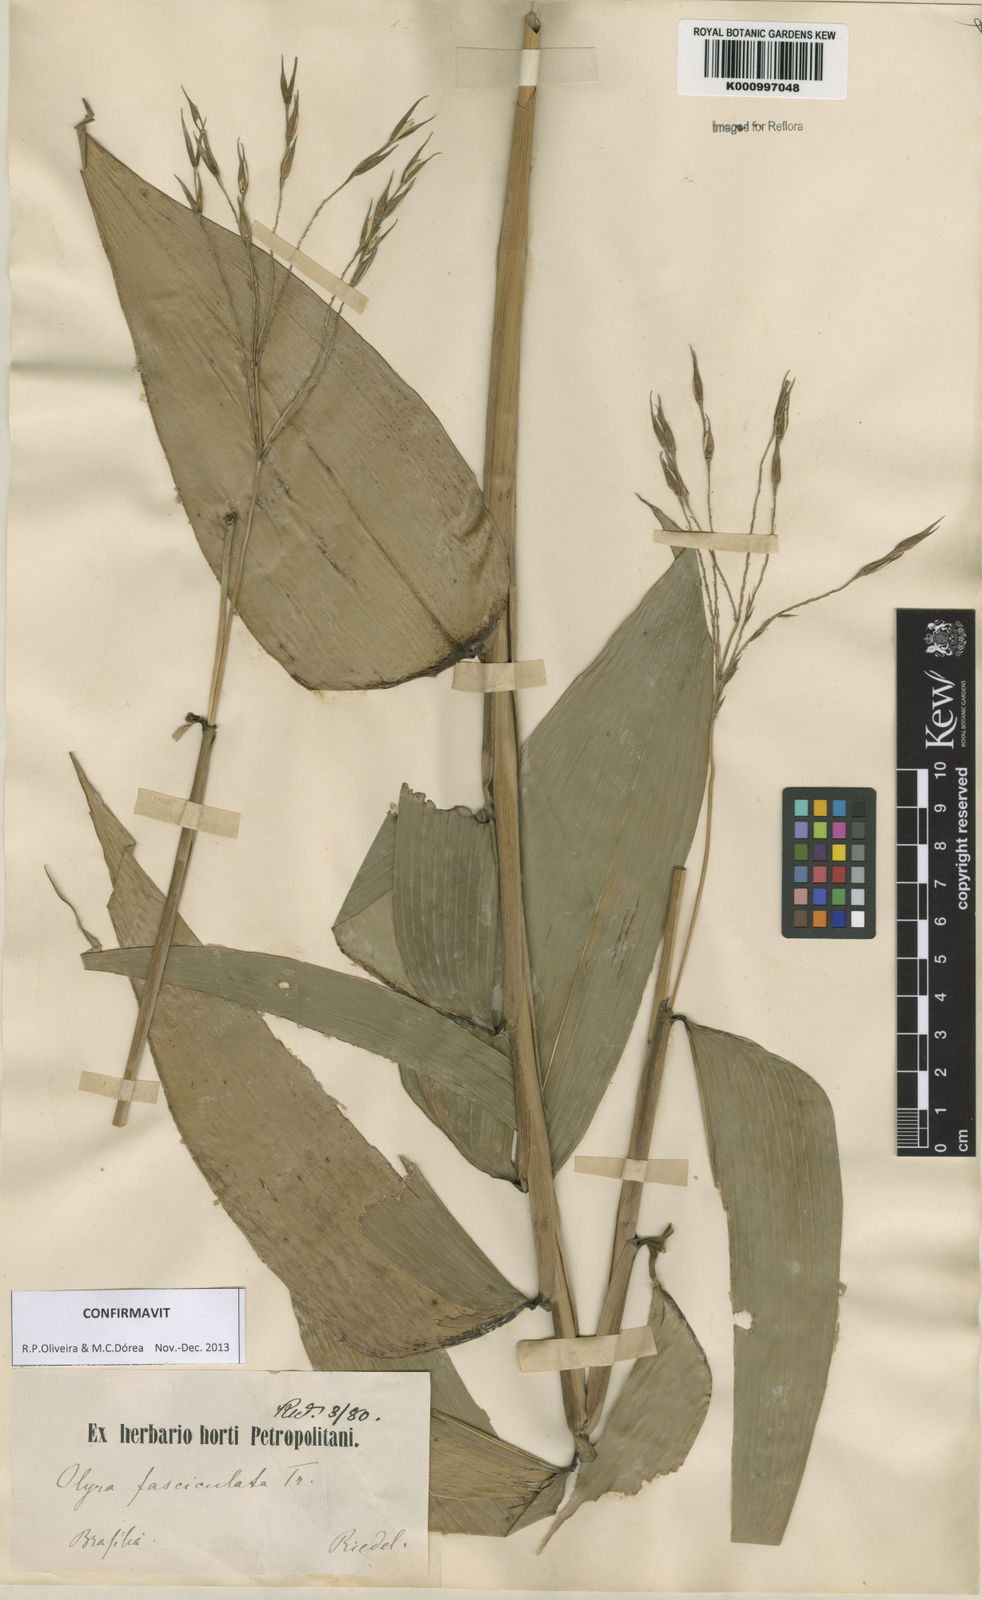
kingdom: Plantae
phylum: Tracheophyta
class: Liliopsida
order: Poales
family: Poaceae
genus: Olyra
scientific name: Olyra fasciculata
